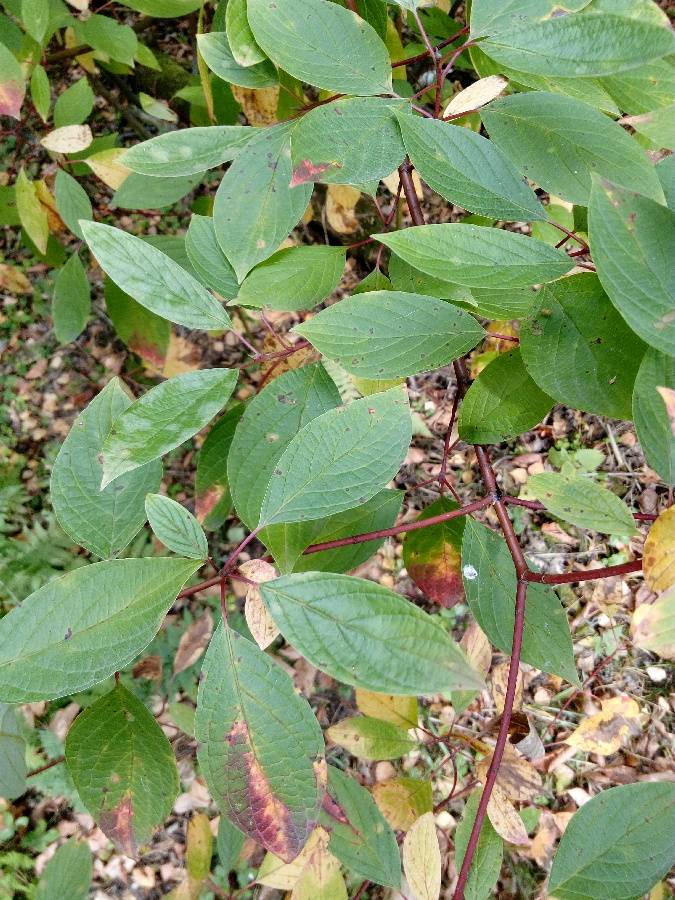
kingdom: Plantae
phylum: Tracheophyta
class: Magnoliopsida
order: Cornales
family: Cornaceae
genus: Cornus
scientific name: Cornus alba
